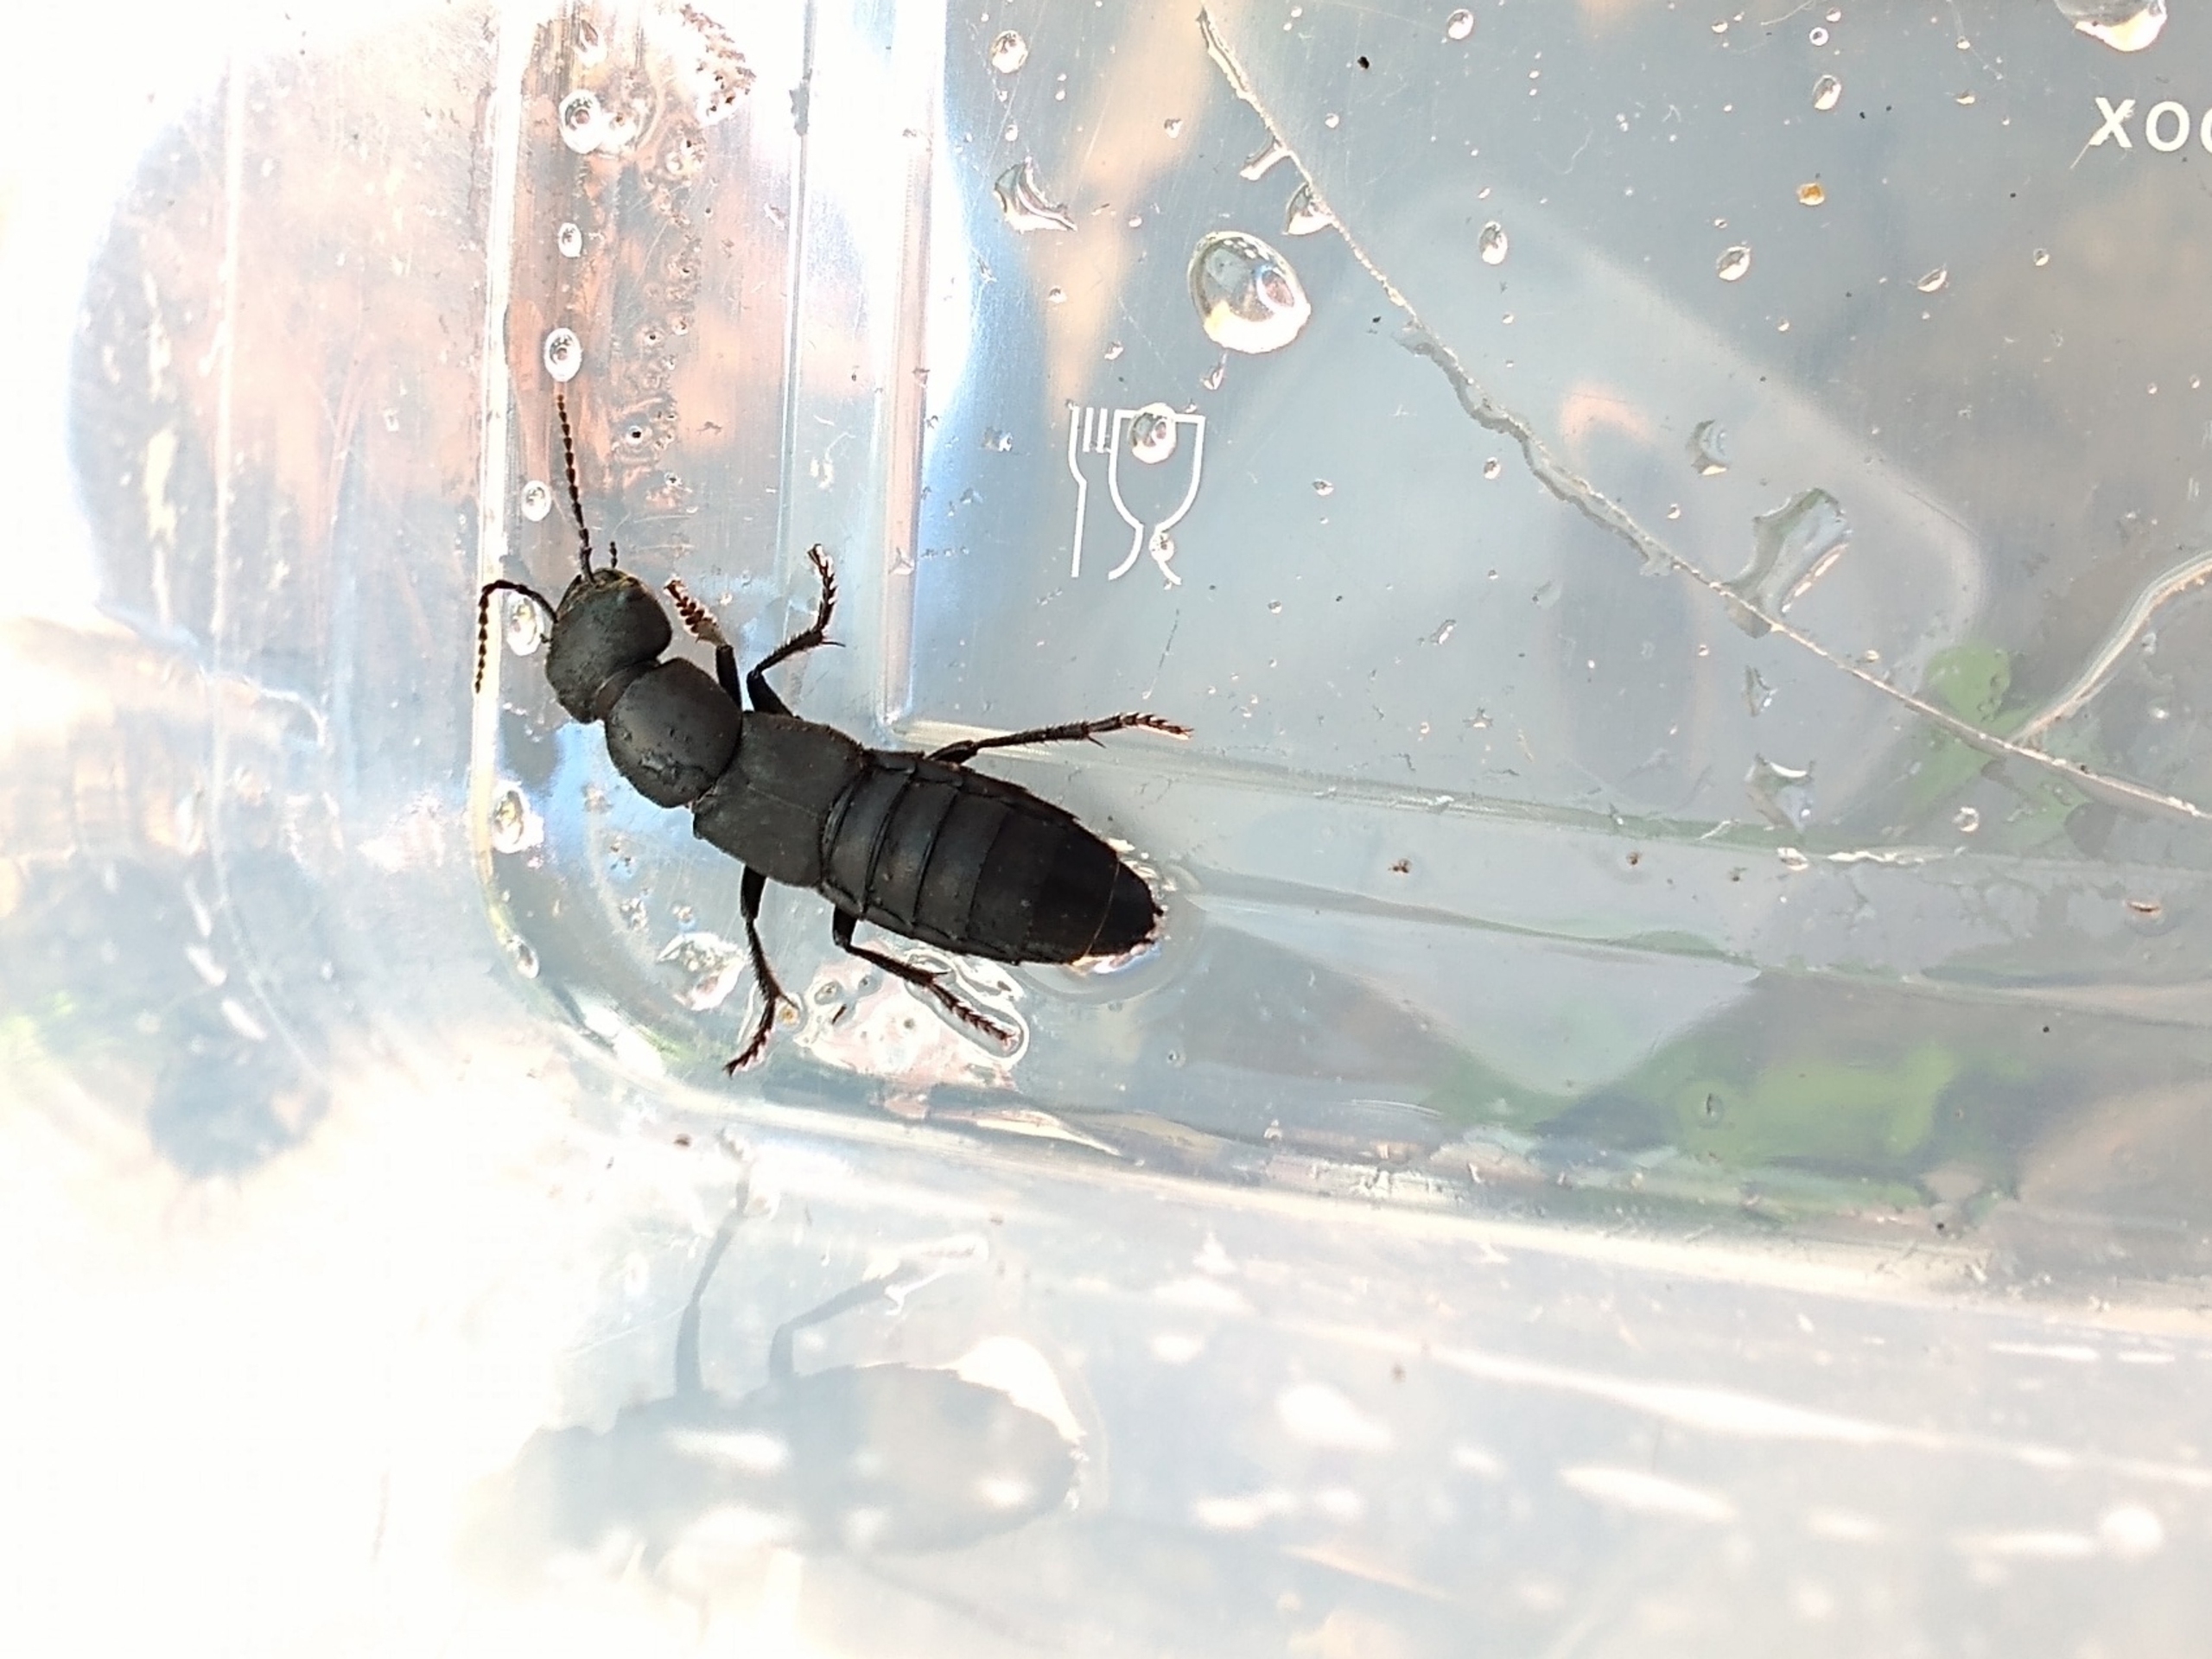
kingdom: Animalia
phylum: Arthropoda
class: Insecta
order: Coleoptera
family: Staphylinidae
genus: Ocypus
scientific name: Ocypus olens
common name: Stor rovbille
